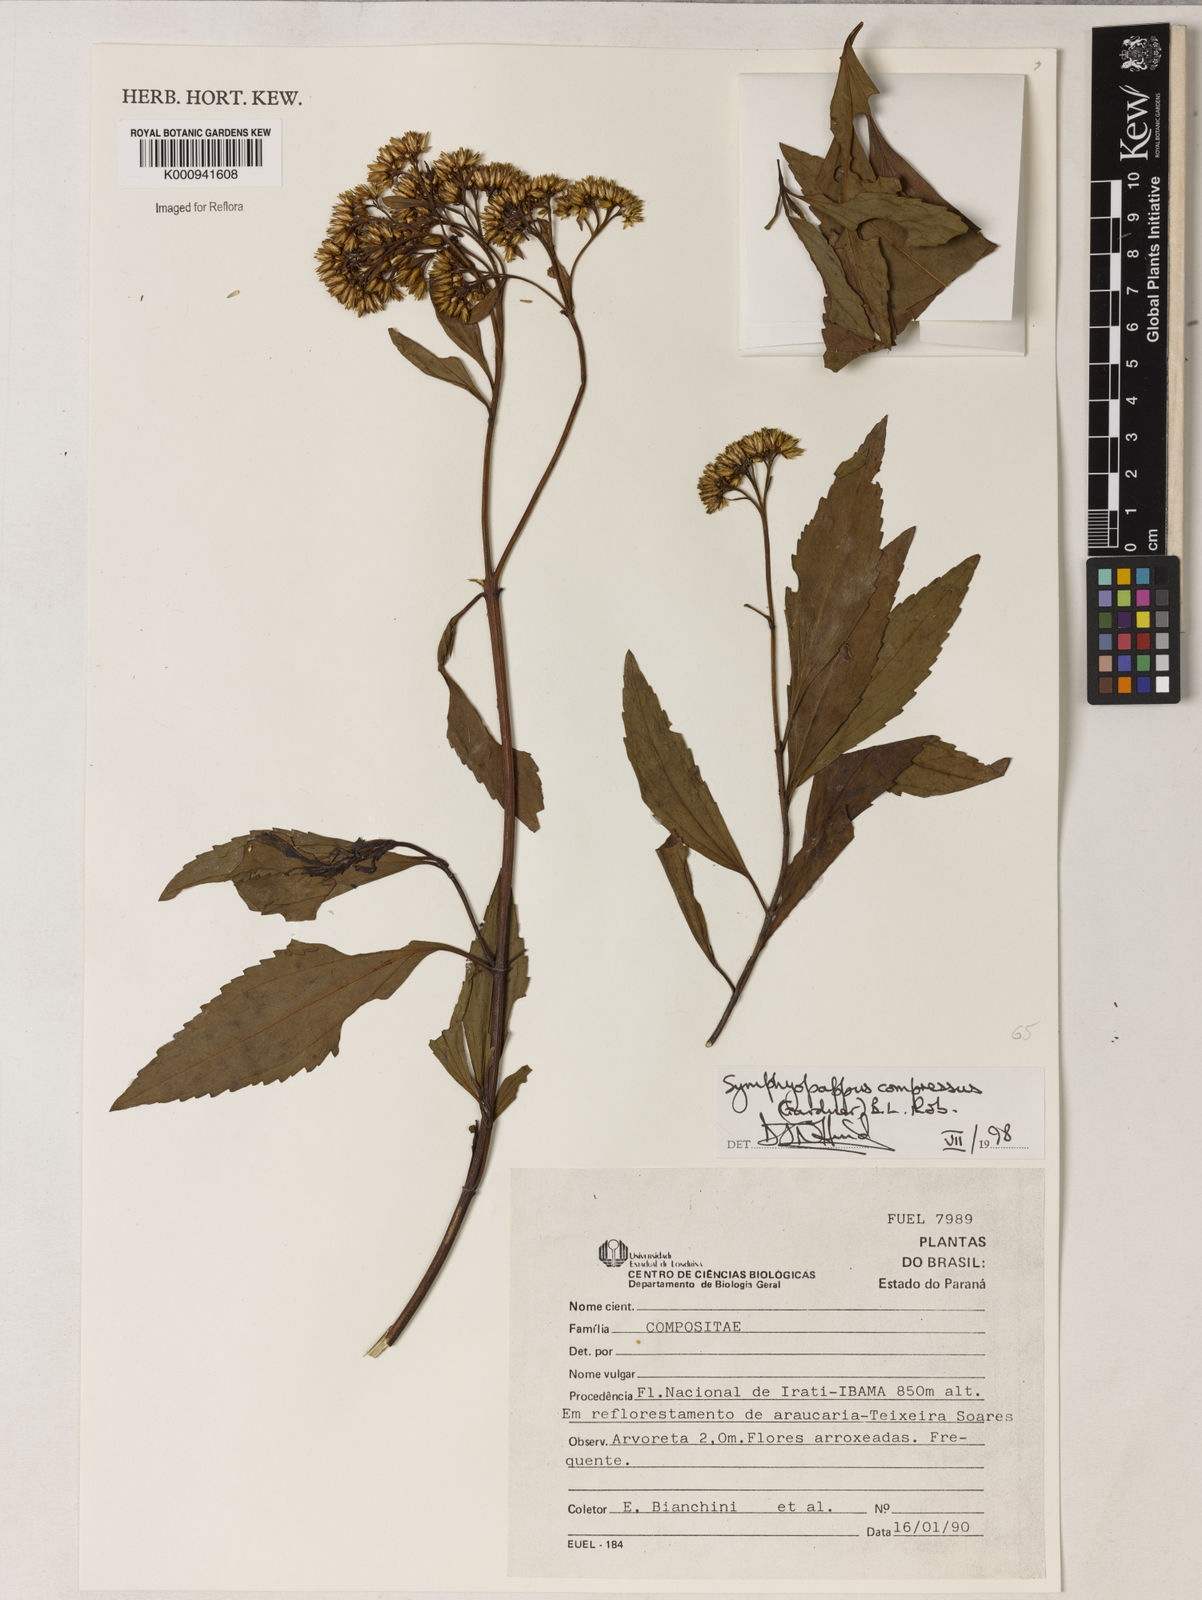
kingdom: Plantae
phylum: Tracheophyta
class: Magnoliopsida
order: Asterales
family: Asteraceae
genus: Symphyopappus
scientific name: Symphyopappus compressus
